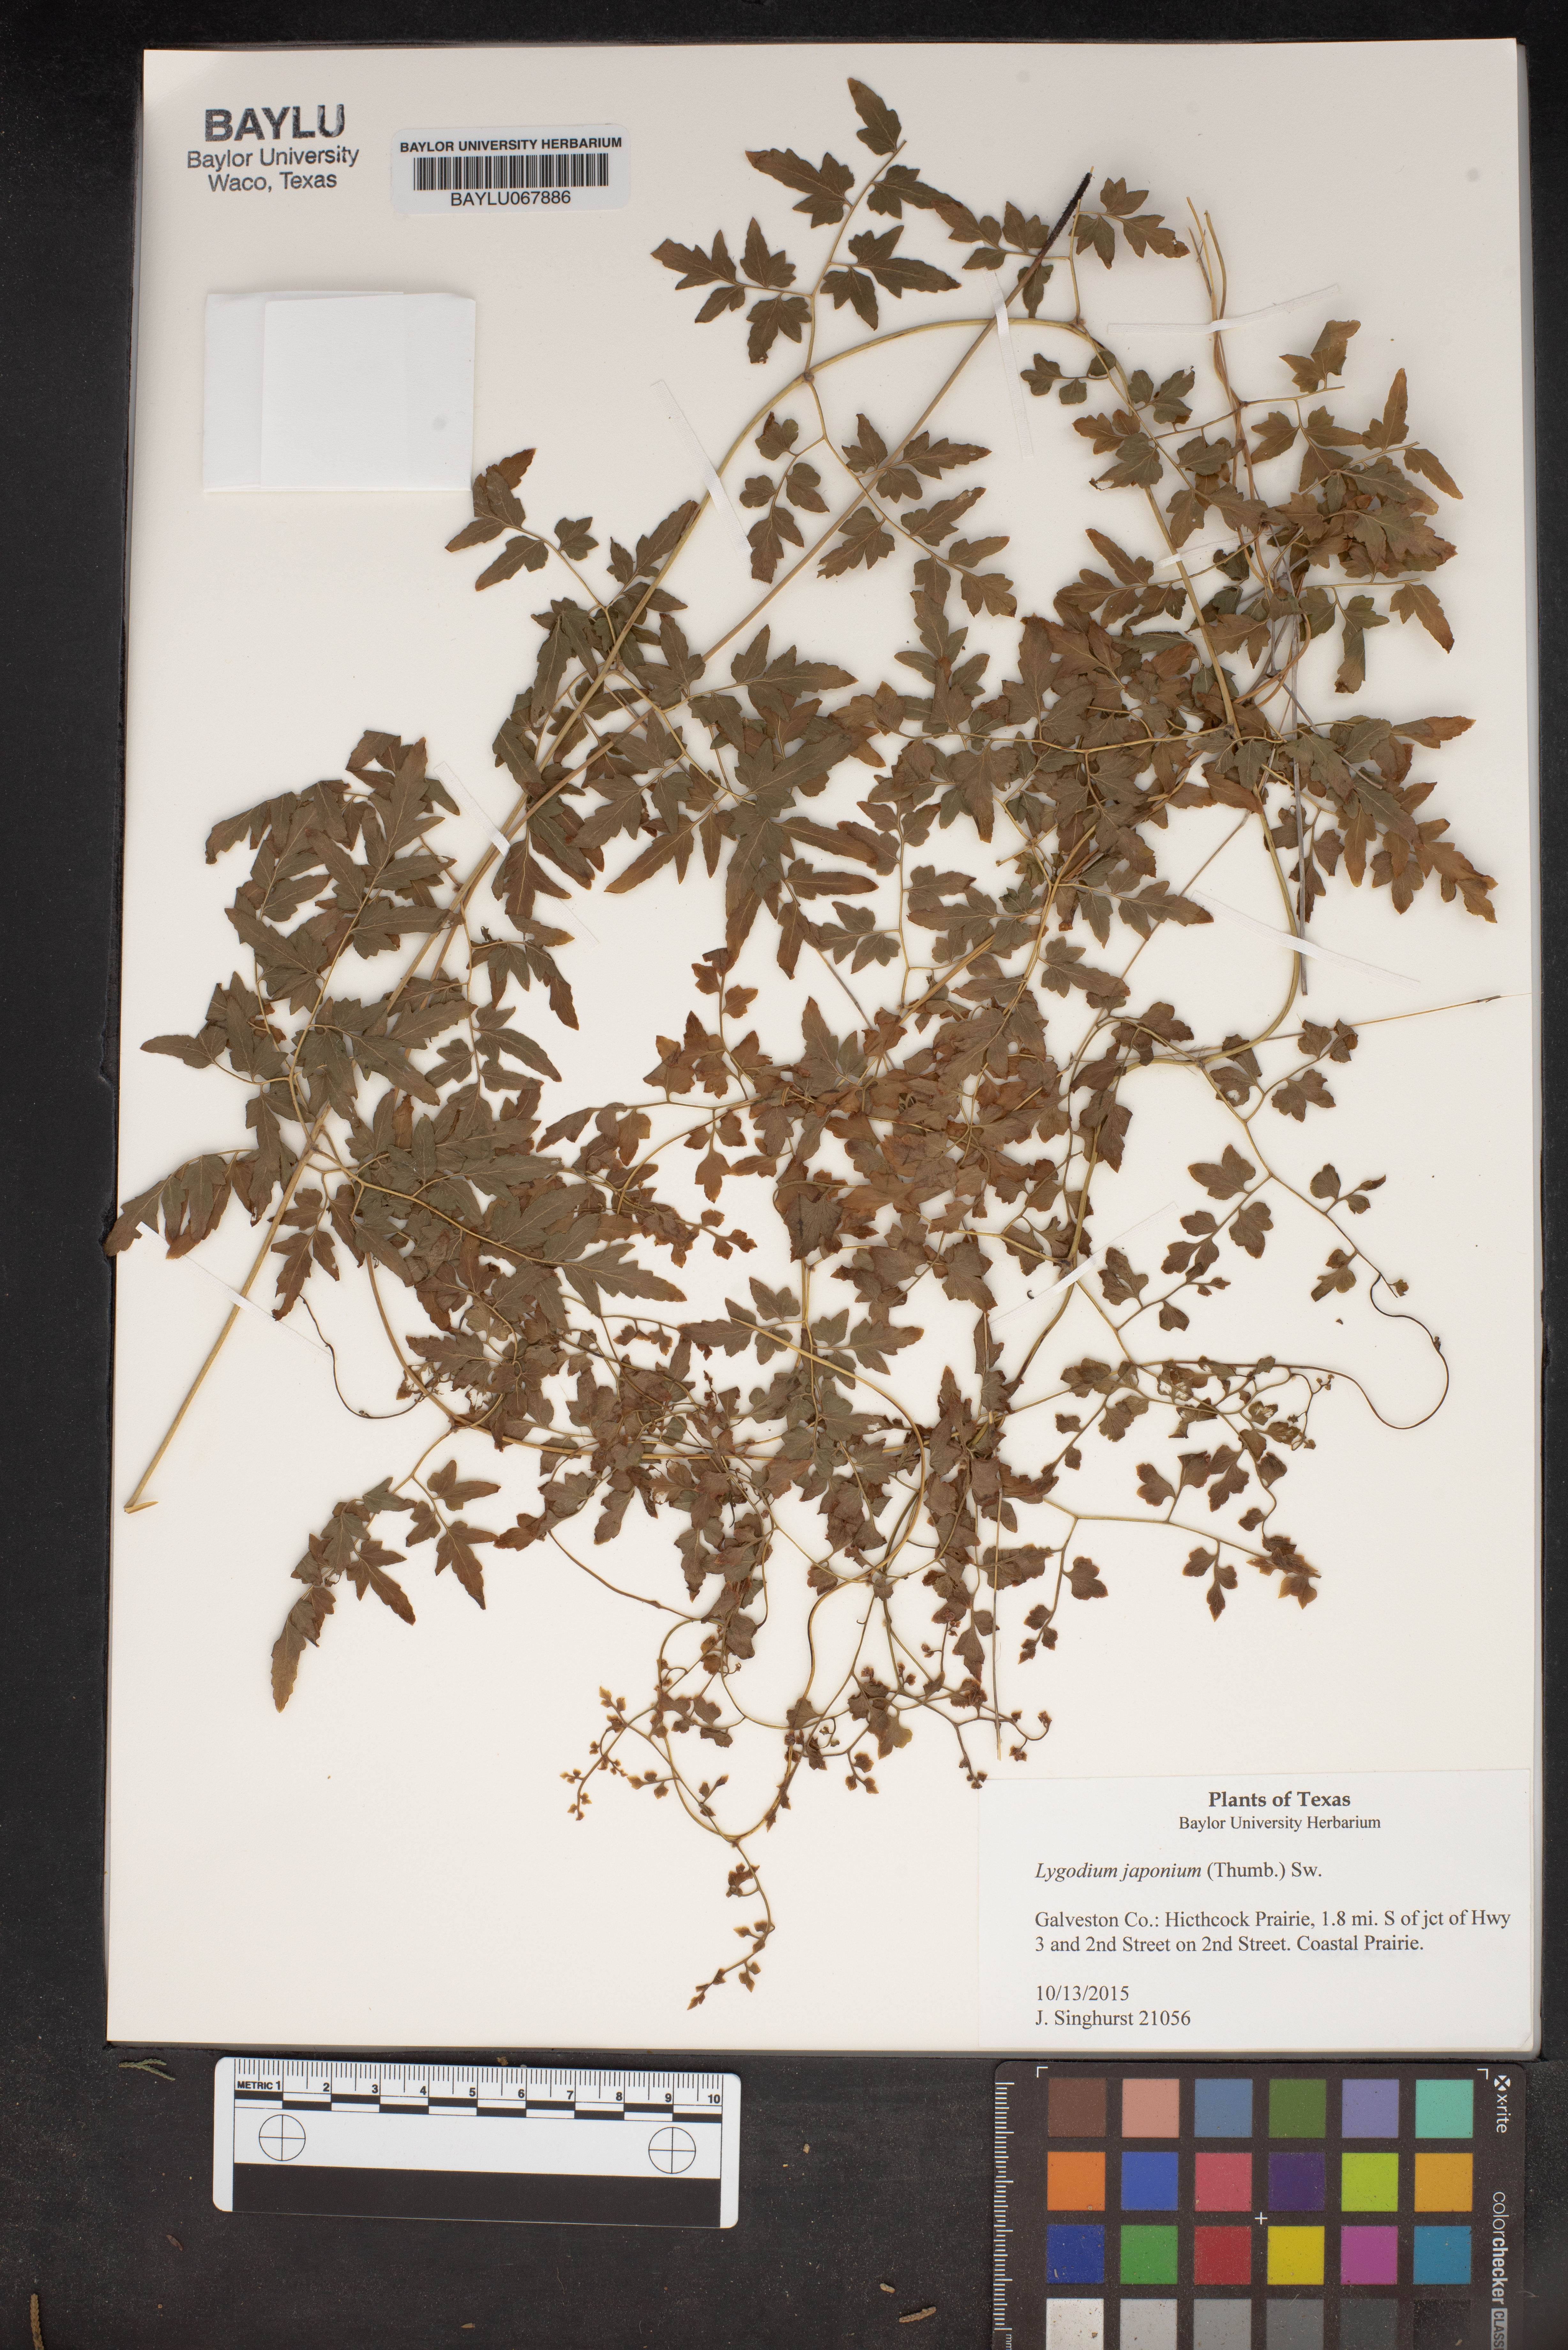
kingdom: Plantae
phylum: Tracheophyta
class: Polypodiopsida
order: Schizaeales
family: Lygodiaceae
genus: Lygodium
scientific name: Lygodium japonicum
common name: Japanese climbing fern
